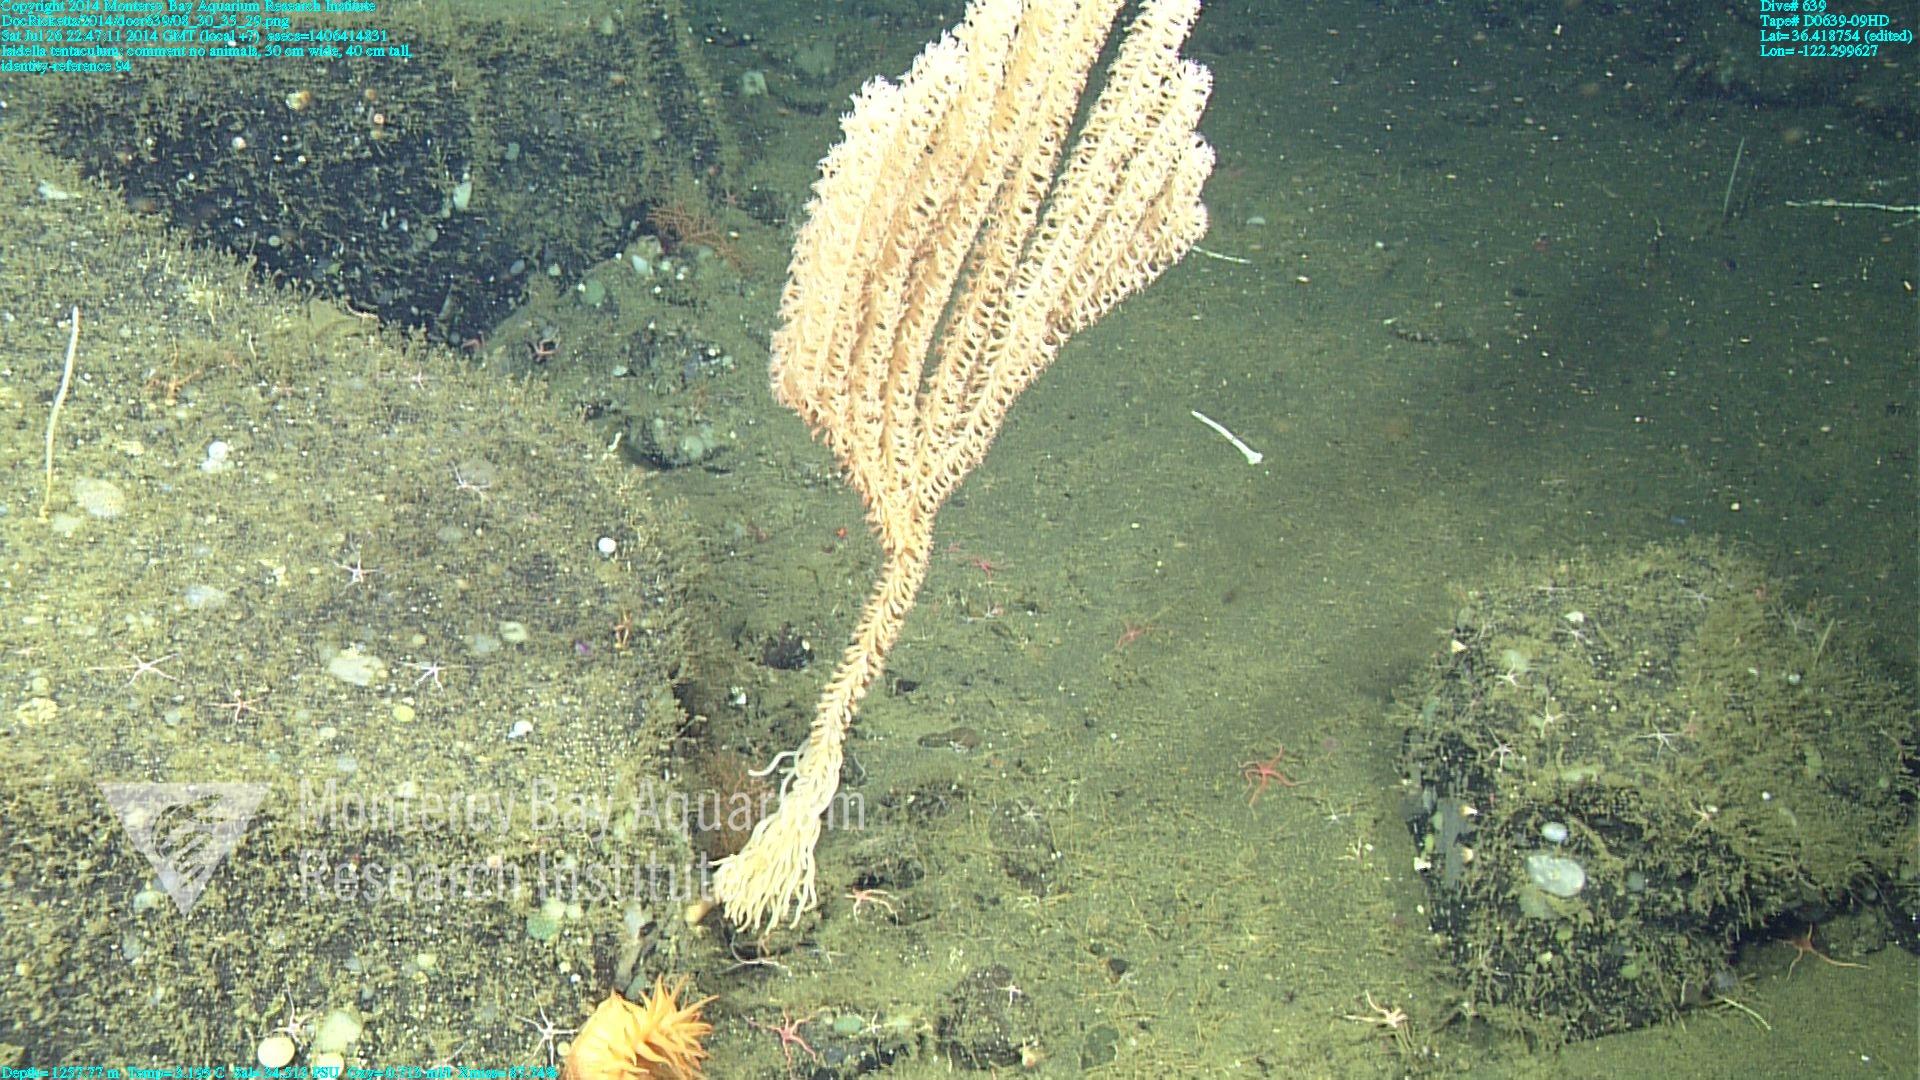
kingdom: Animalia
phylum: Cnidaria
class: Anthozoa
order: Scleralcyonacea
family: Keratoisididae
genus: Isidella
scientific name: Isidella tentaculum
